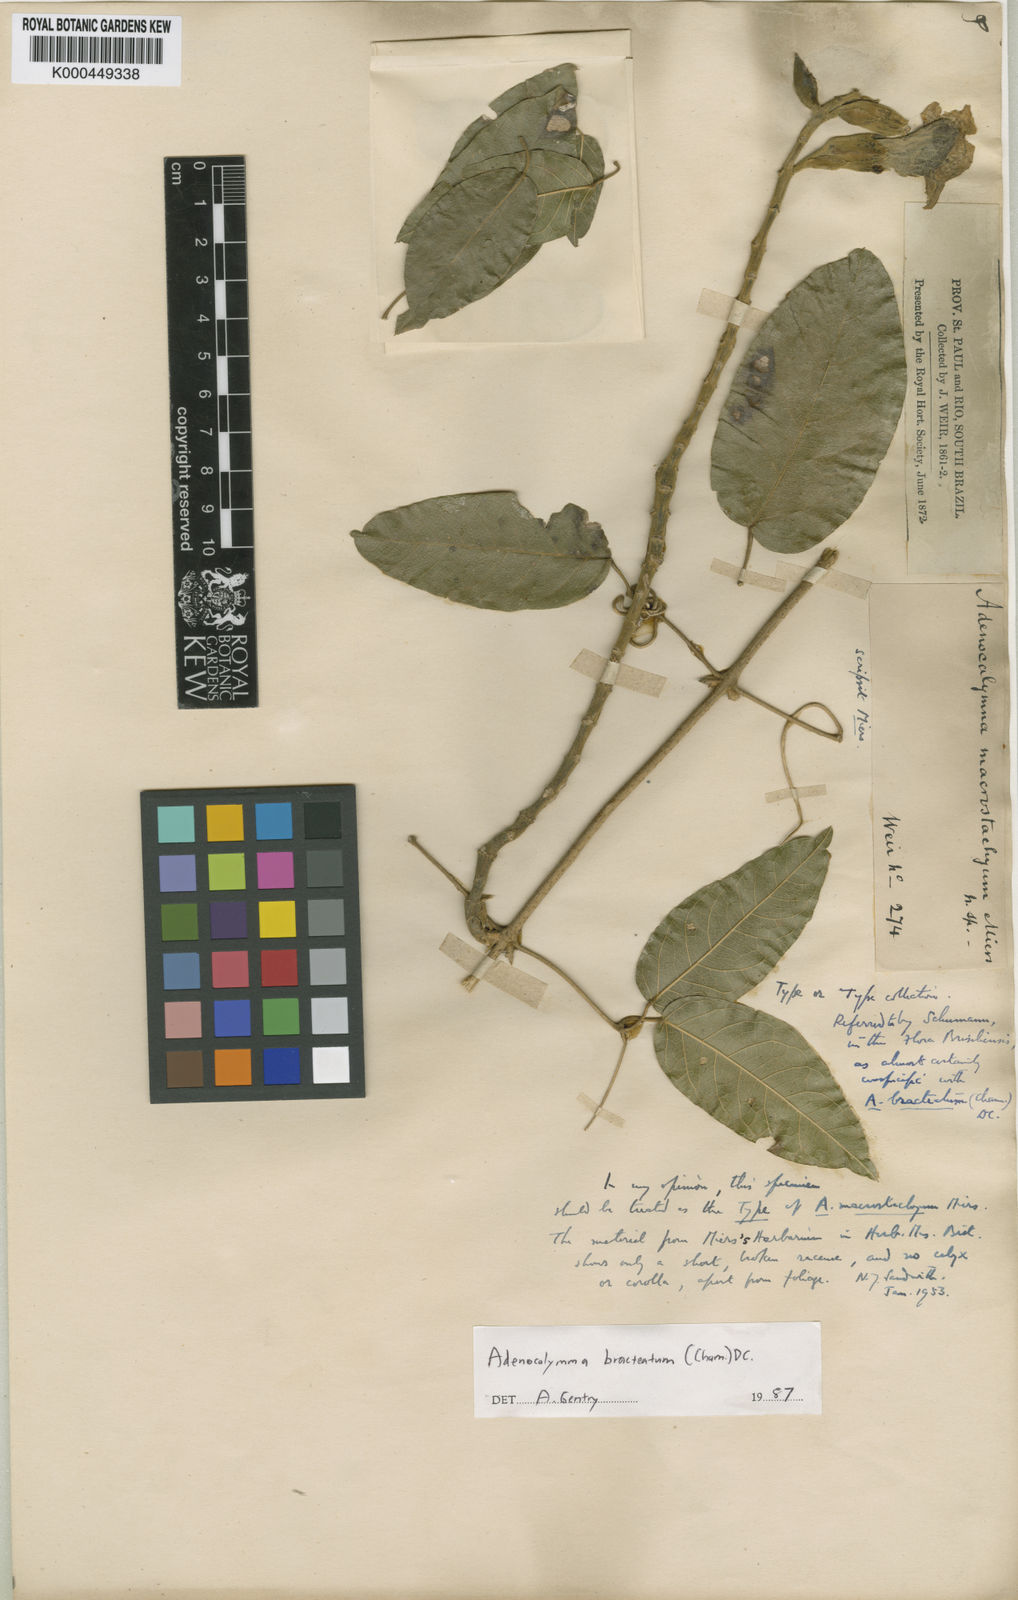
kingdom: Plantae
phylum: Tracheophyta
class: Magnoliopsida
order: Lamiales
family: Bignoniaceae
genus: Adenocalymma
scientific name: Adenocalymma bracteatum
